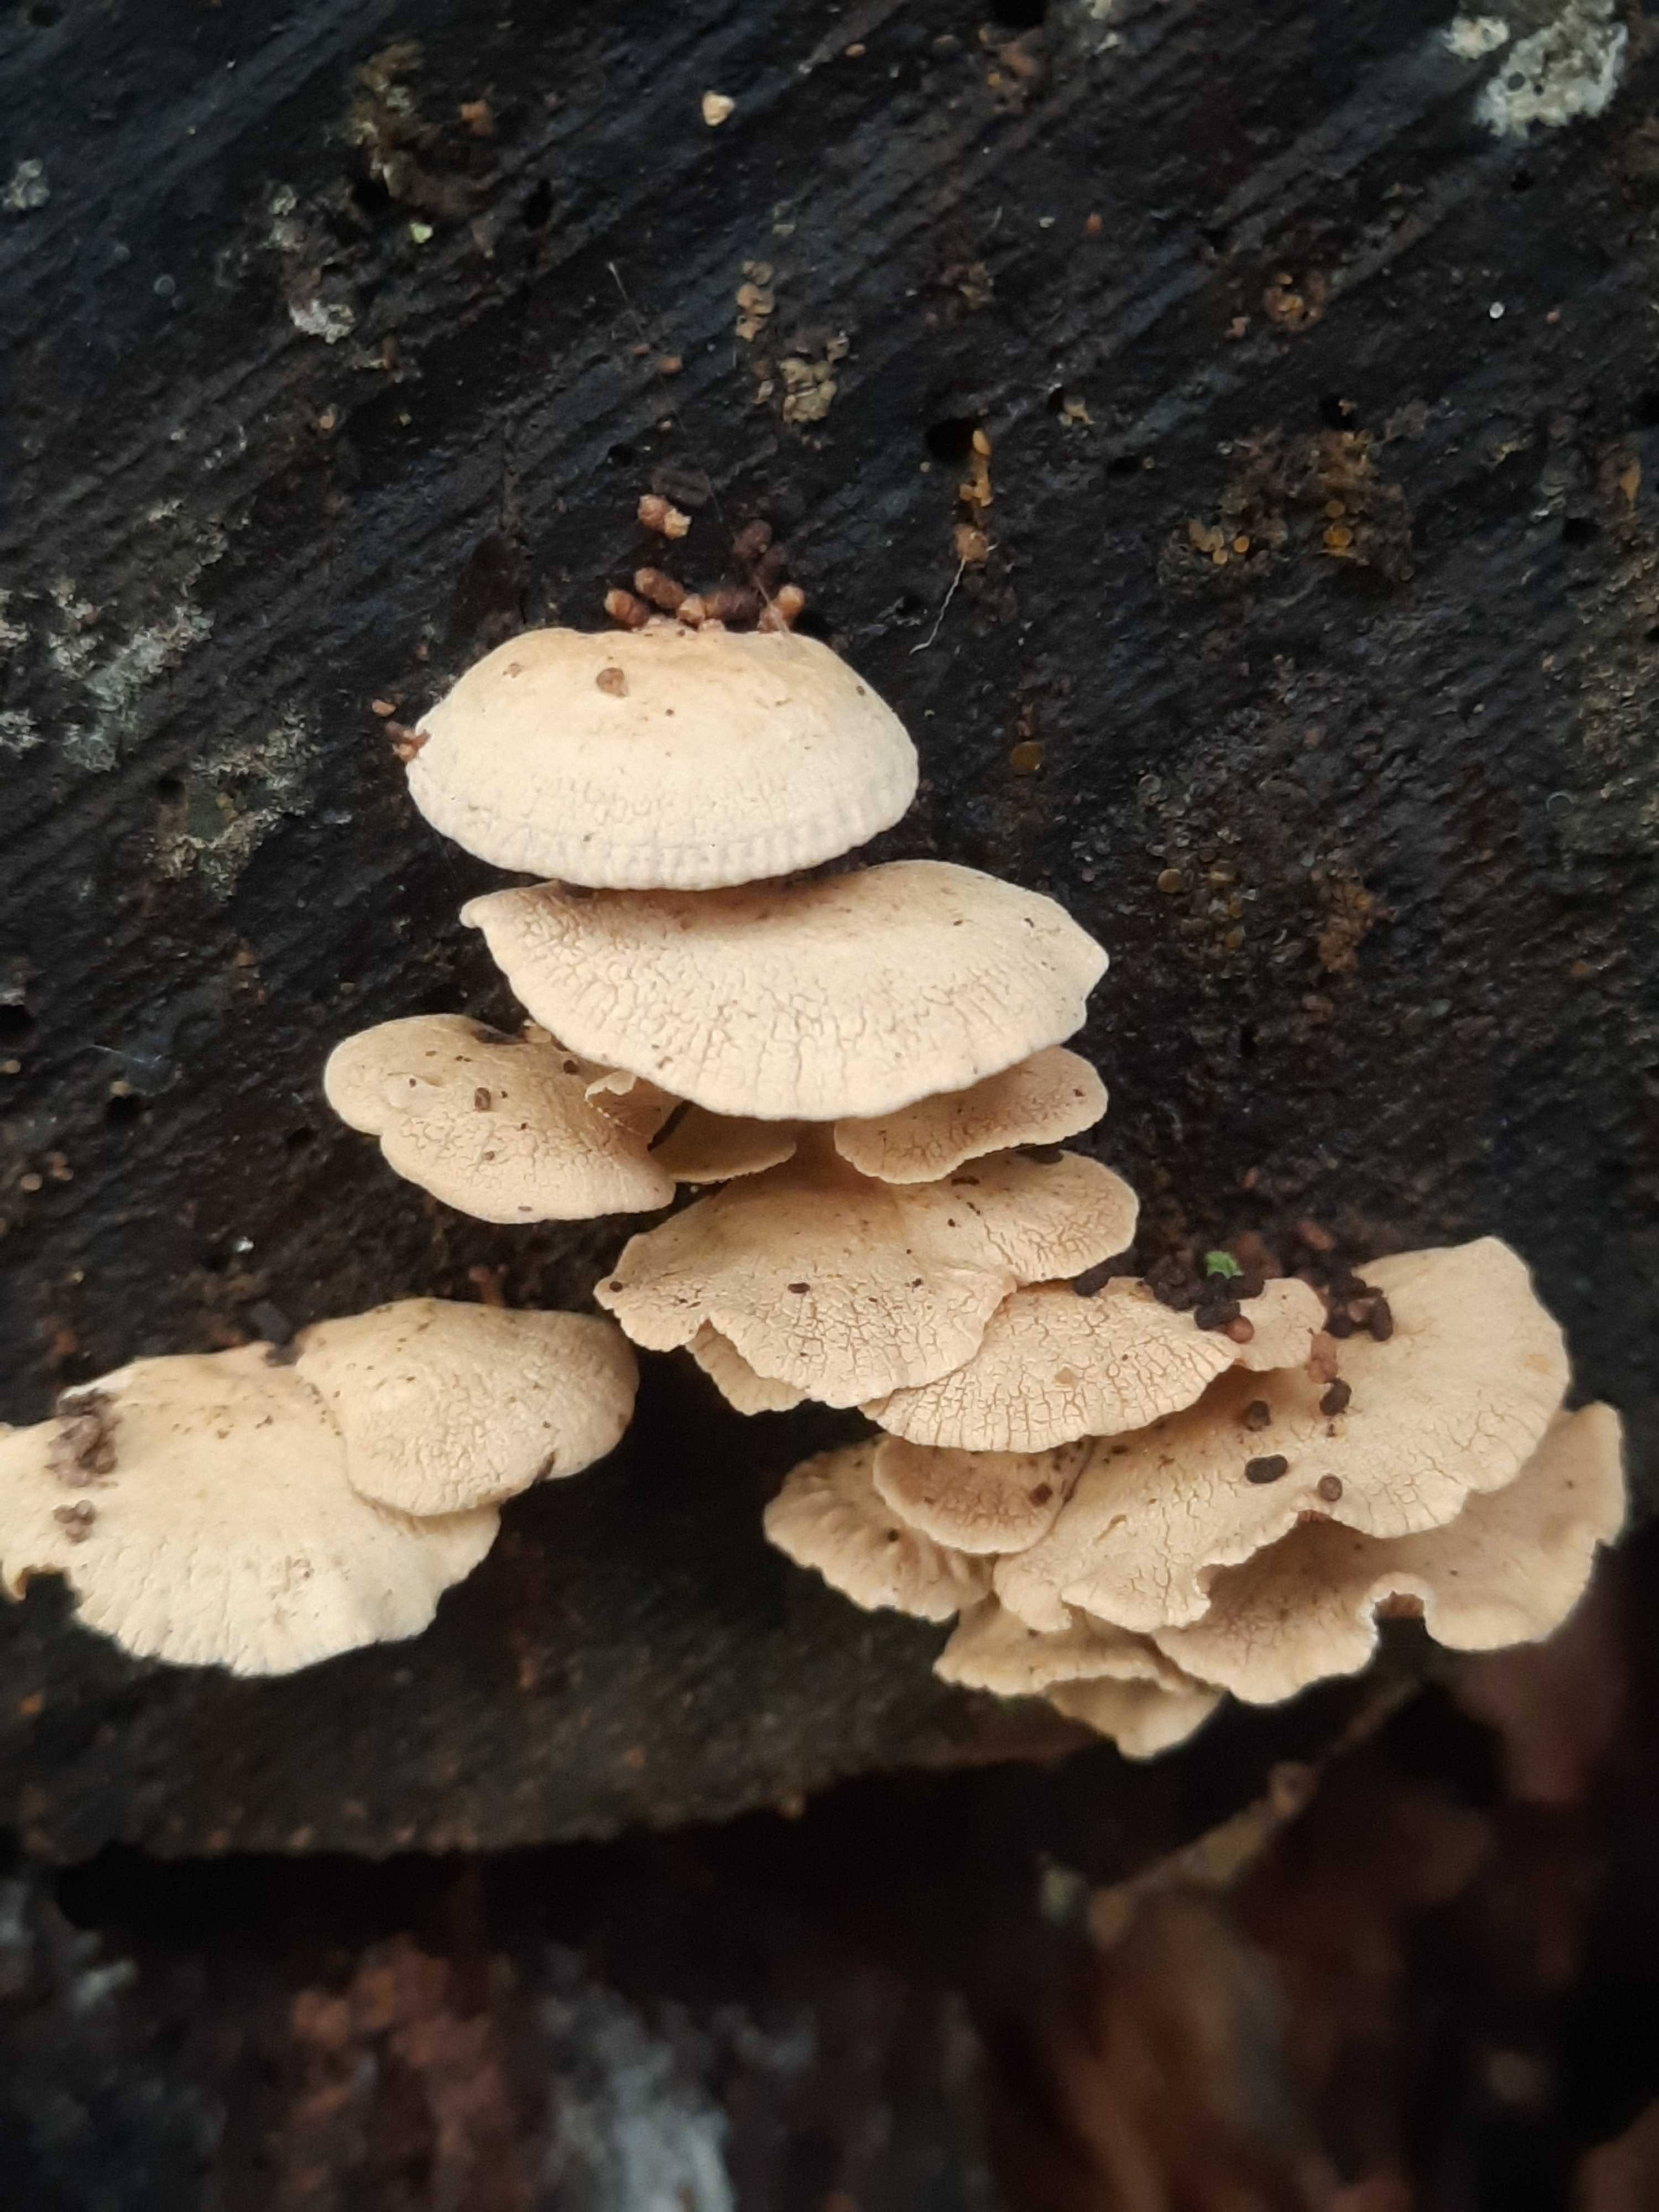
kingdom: Fungi
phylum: Basidiomycota
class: Agaricomycetes
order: Agaricales
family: Mycenaceae
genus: Panellus
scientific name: Panellus stipticus
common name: kliddet epaulethat
